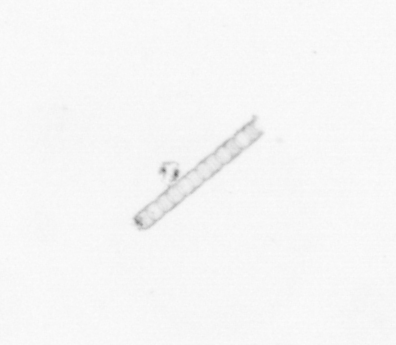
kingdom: Chromista
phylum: Ochrophyta
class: Bacillariophyceae
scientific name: Bacillariophyceae
